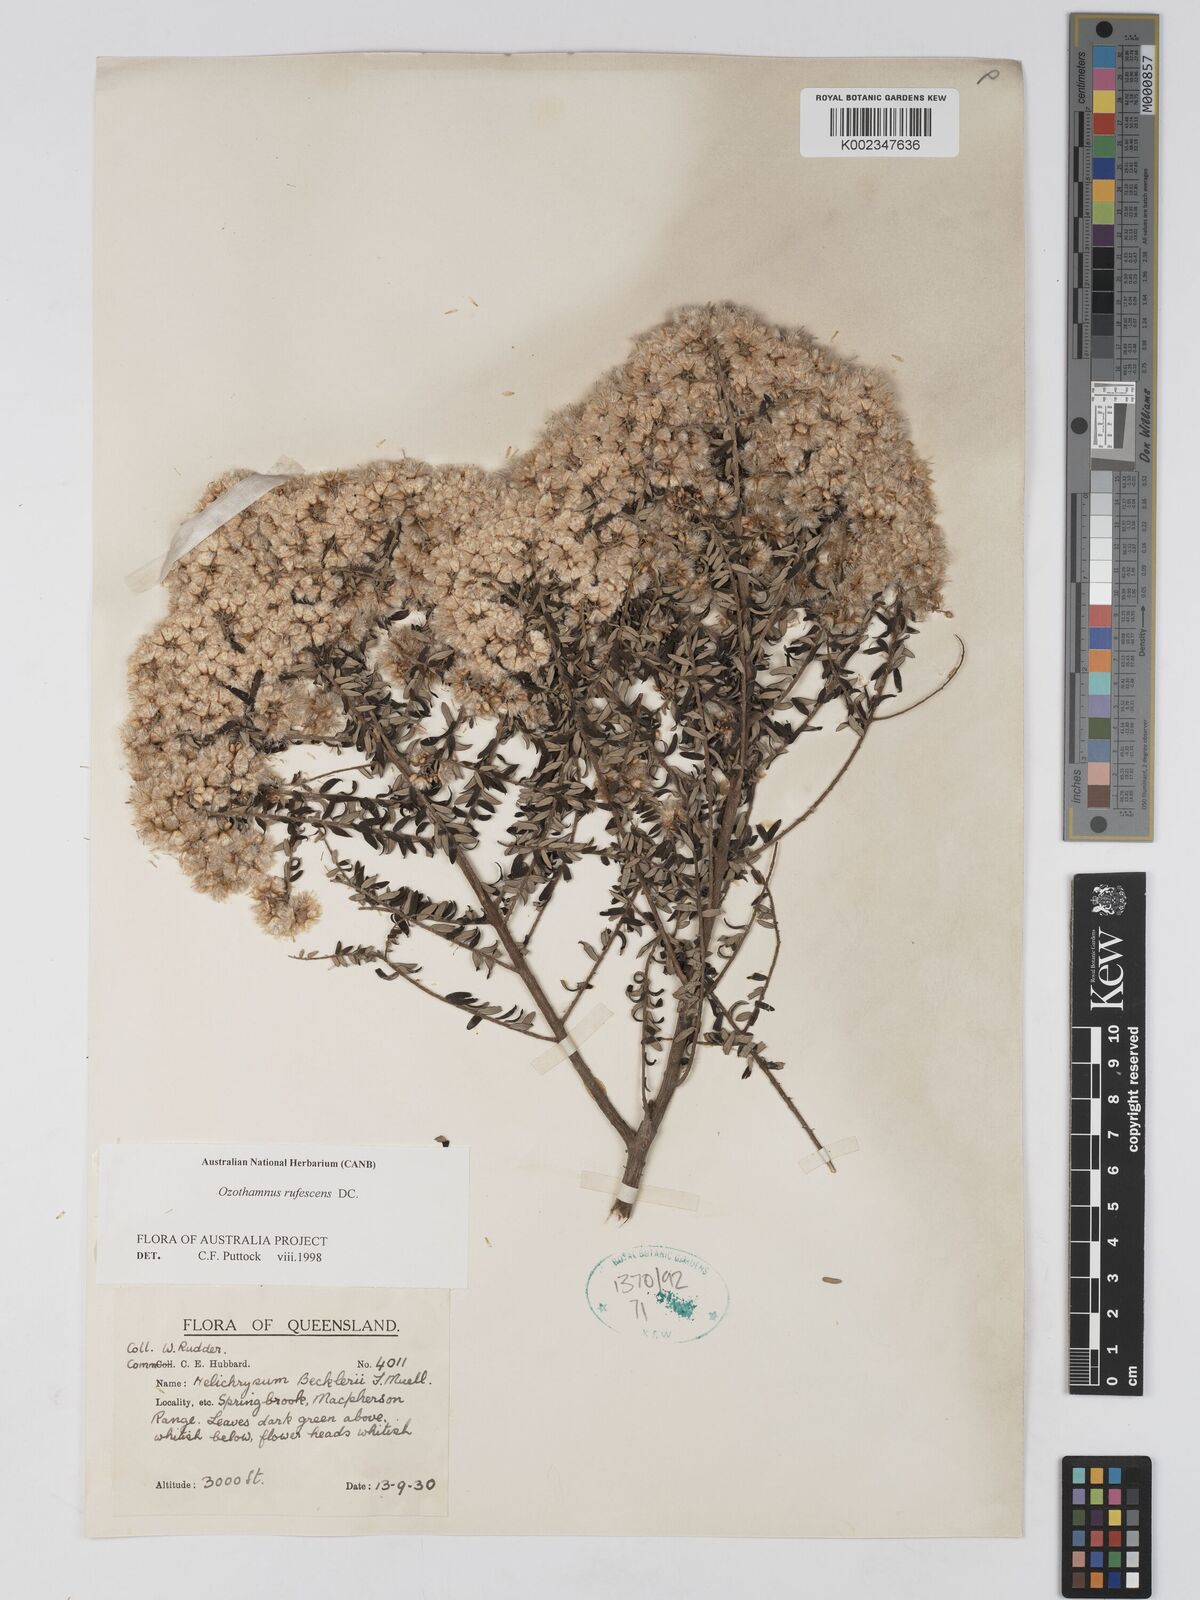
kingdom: Plantae
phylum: Tracheophyta
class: Magnoliopsida
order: Asterales
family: Asteraceae
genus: Ozothamnus
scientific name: Ozothamnus rufescens
